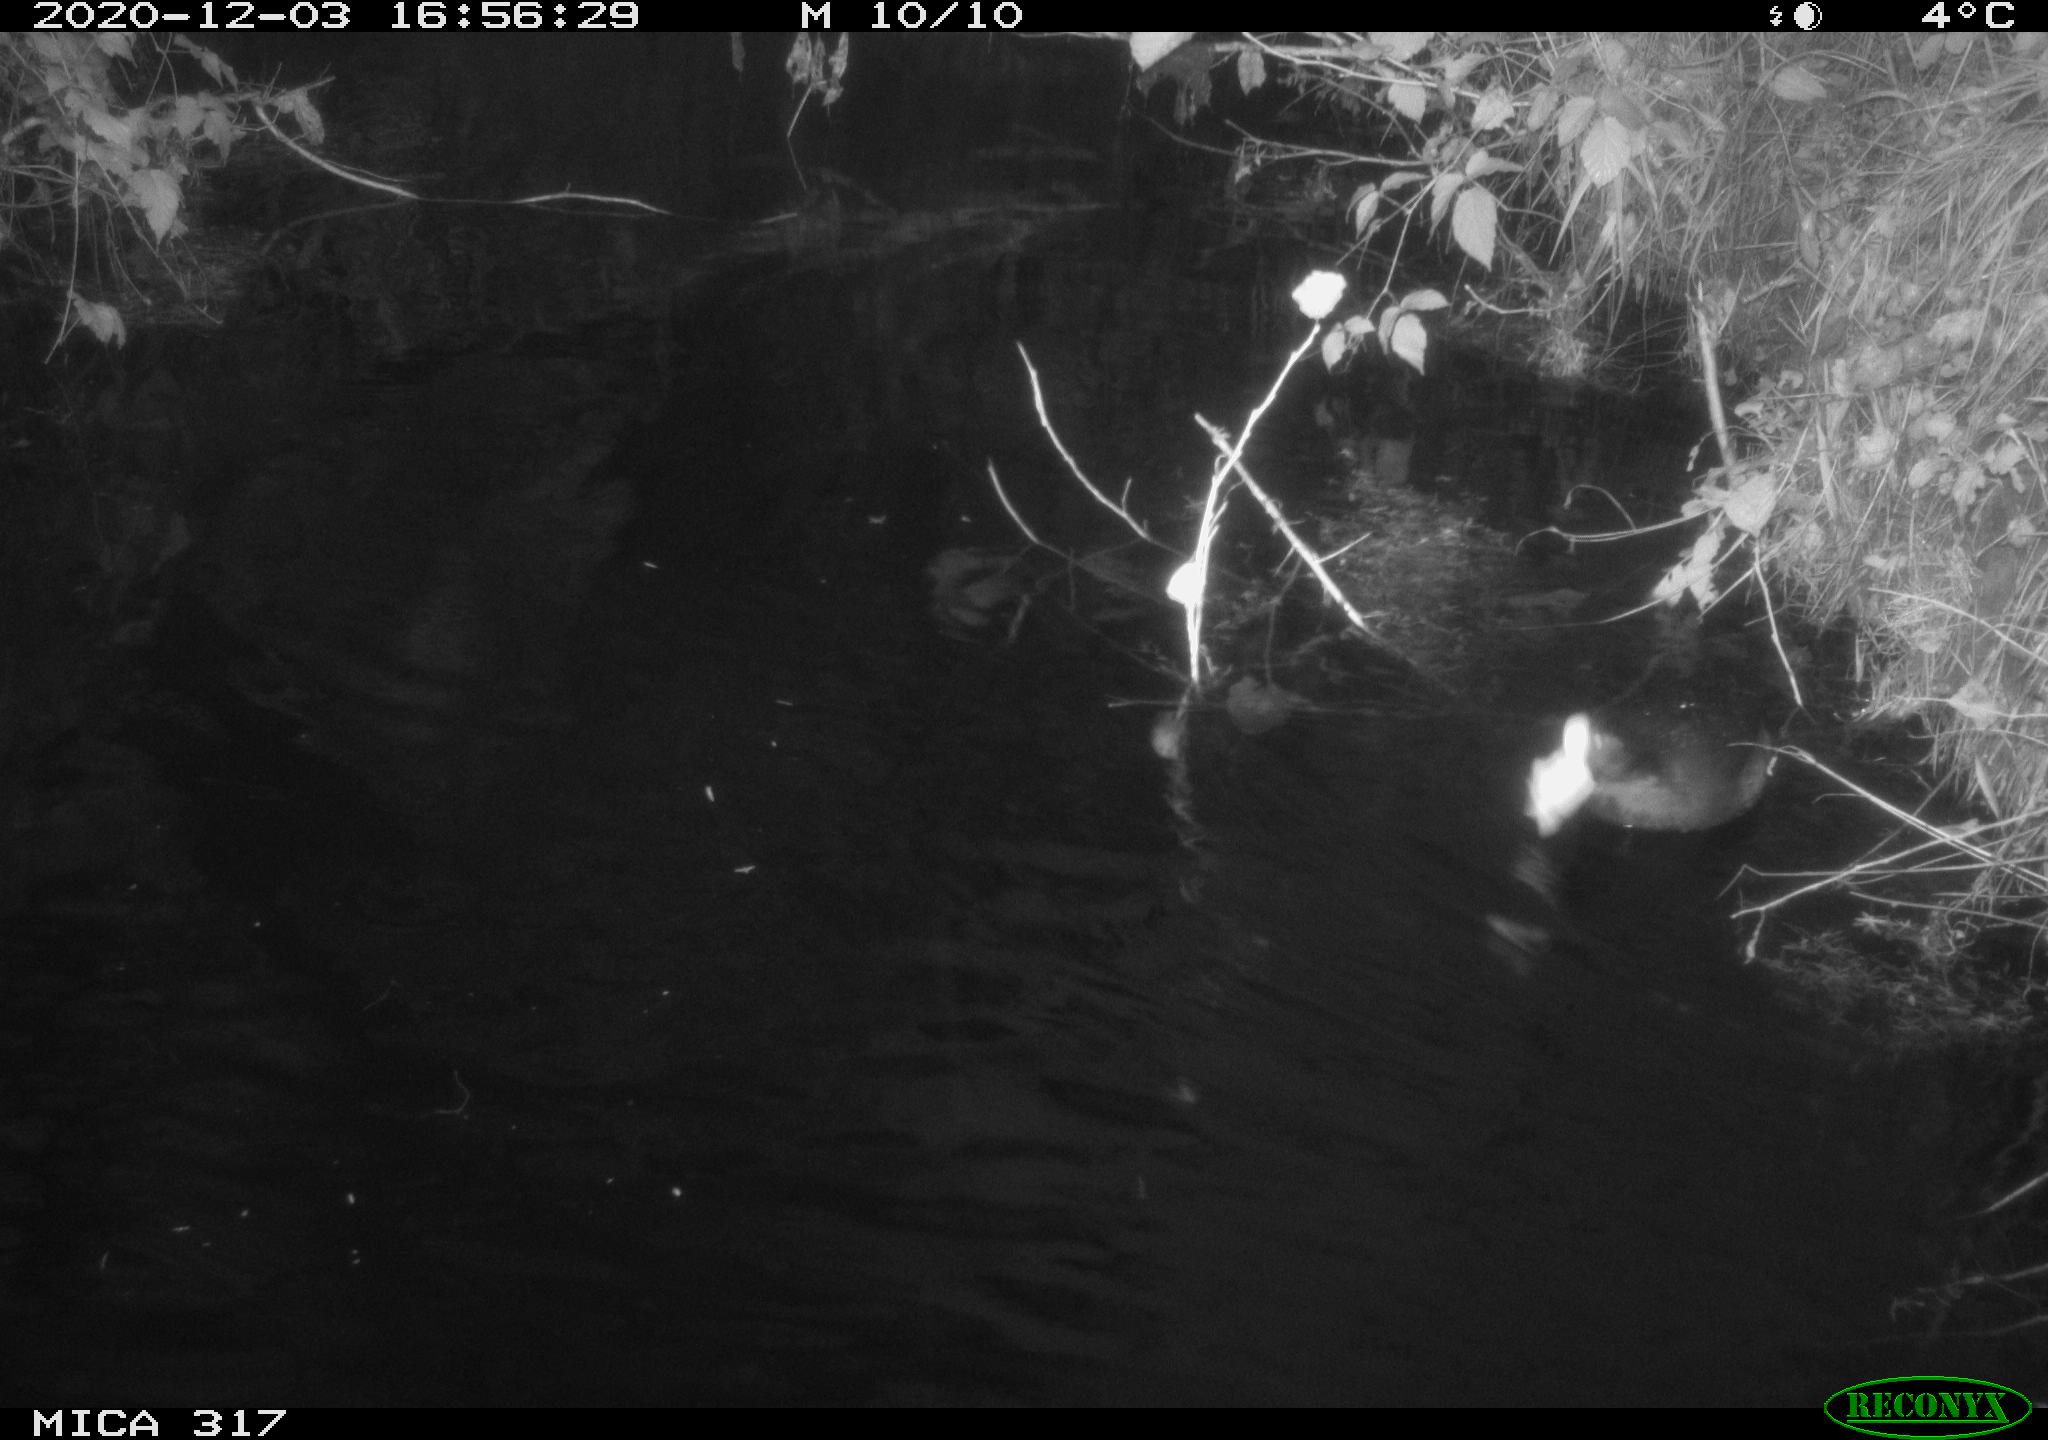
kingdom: Animalia
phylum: Chordata
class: Aves
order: Gruiformes
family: Rallidae
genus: Fulica
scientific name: Fulica atra
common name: Eurasian coot
